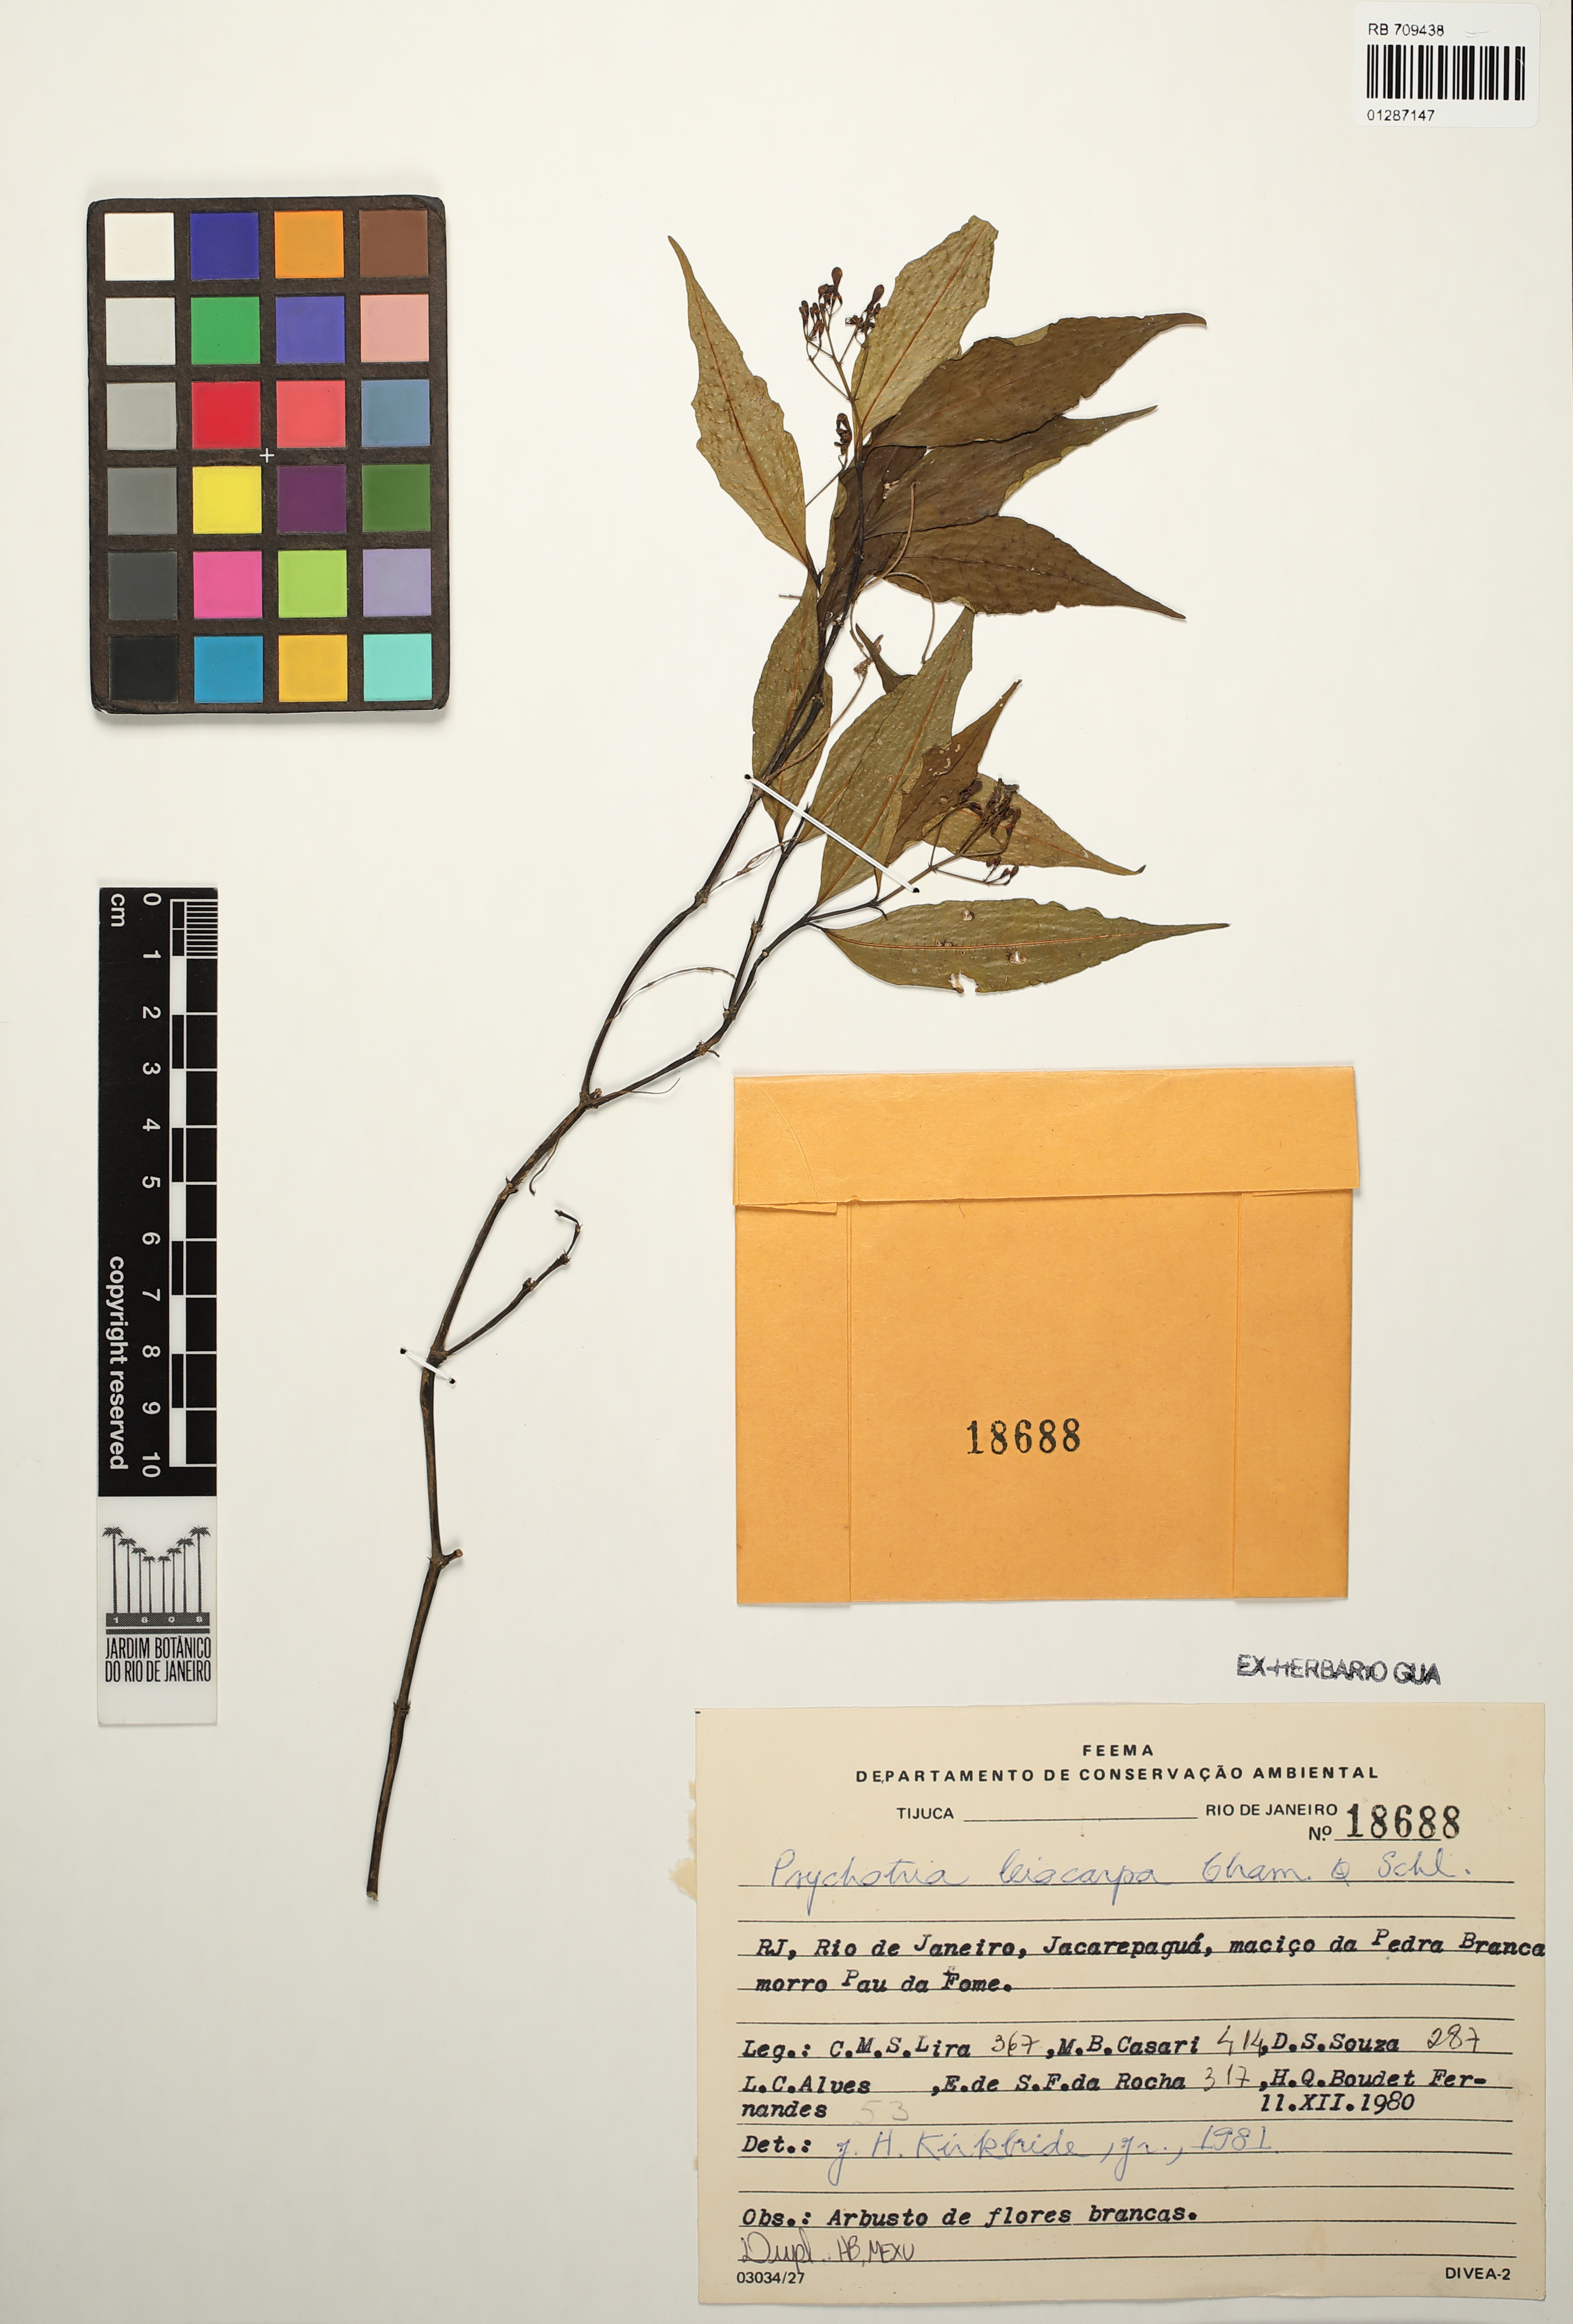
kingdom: Plantae
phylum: Tracheophyta
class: Magnoliopsida
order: Gentianales
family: Rubiaceae
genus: Psychotria
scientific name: Psychotria leiocarpa
